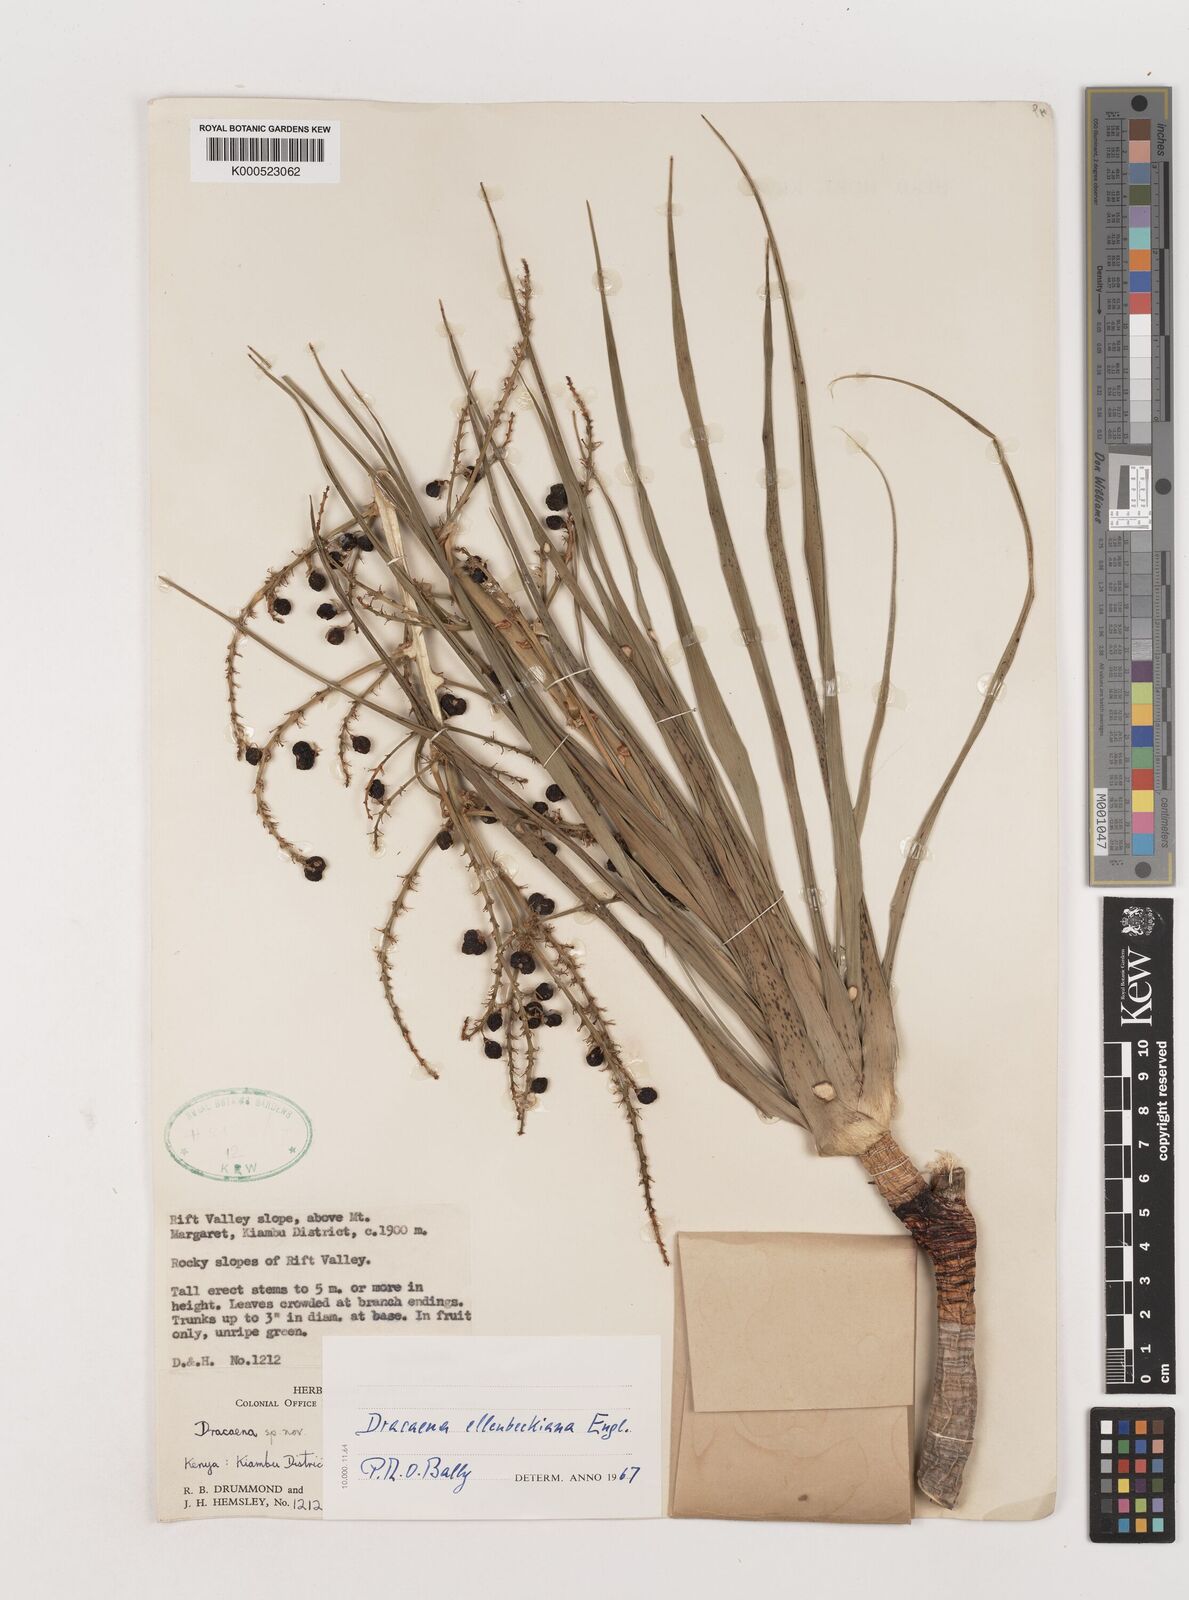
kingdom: Plantae
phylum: Tracheophyta
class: Liliopsida
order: Asparagales
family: Asparagaceae
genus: Dracaena
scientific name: Dracaena ellenbeckiana
